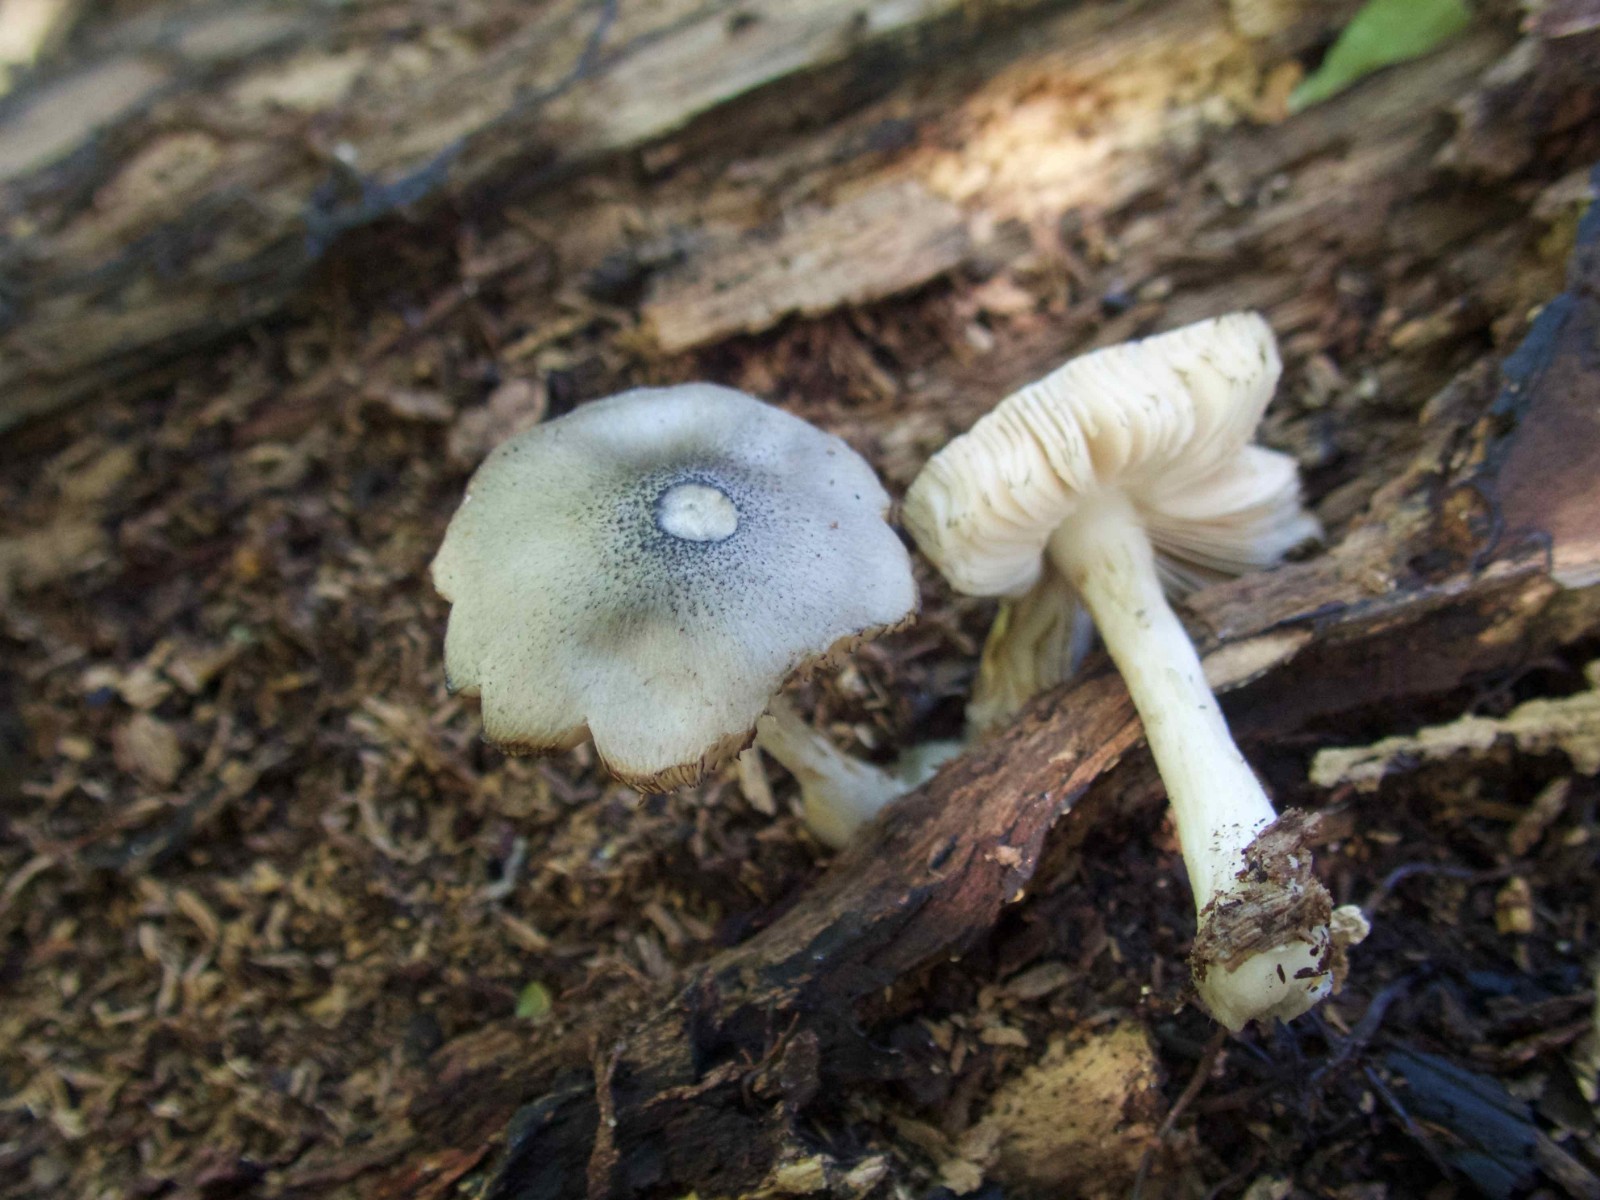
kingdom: Fungi
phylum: Basidiomycota
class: Agaricomycetes
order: Agaricales
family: Pluteaceae
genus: Pluteus
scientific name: Pluteus salicinus
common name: stiv skærmhat
